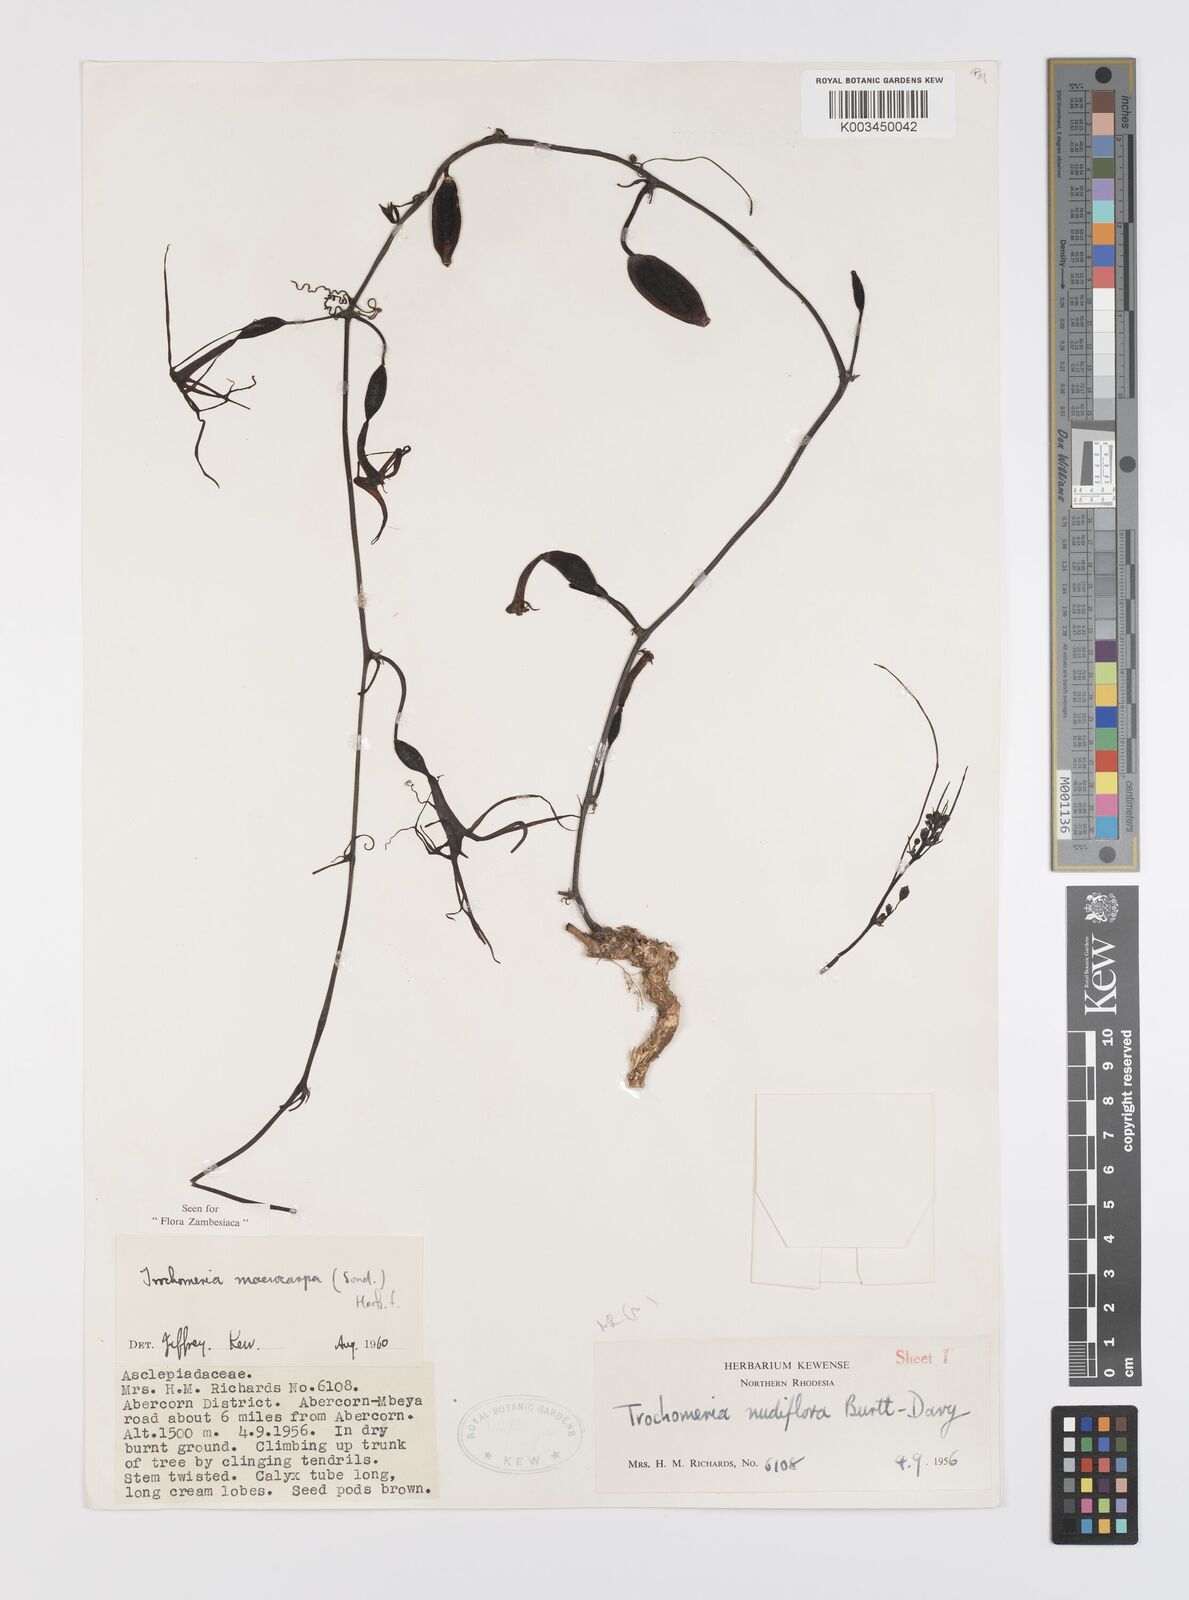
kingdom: Plantae
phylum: Tracheophyta
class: Magnoliopsida
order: Cucurbitales
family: Cucurbitaceae
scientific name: Cucurbitaceae
